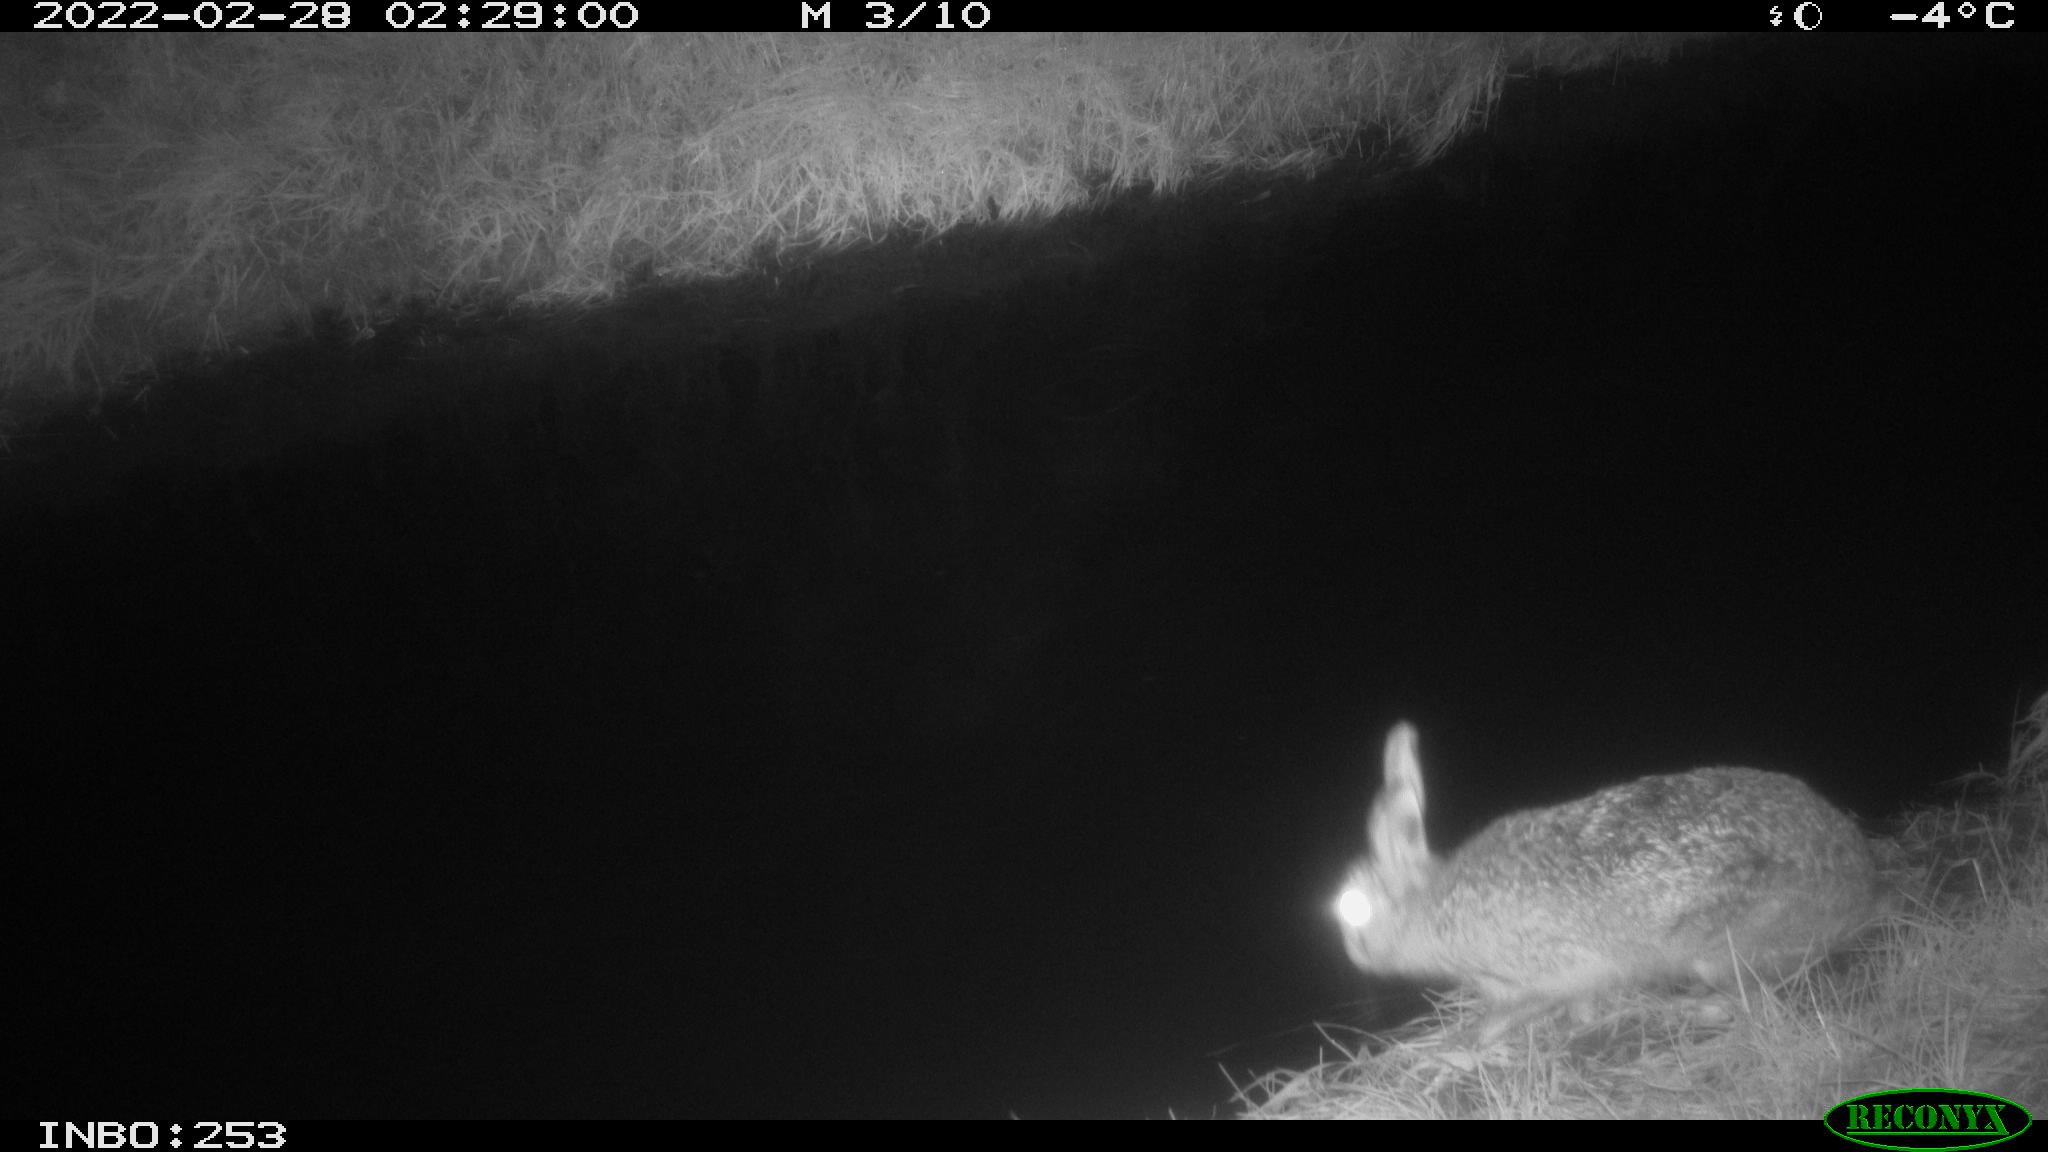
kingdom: Animalia
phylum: Chordata
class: Mammalia
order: Lagomorpha
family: Leporidae
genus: Lepus
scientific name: Lepus europaeus
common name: European hare
